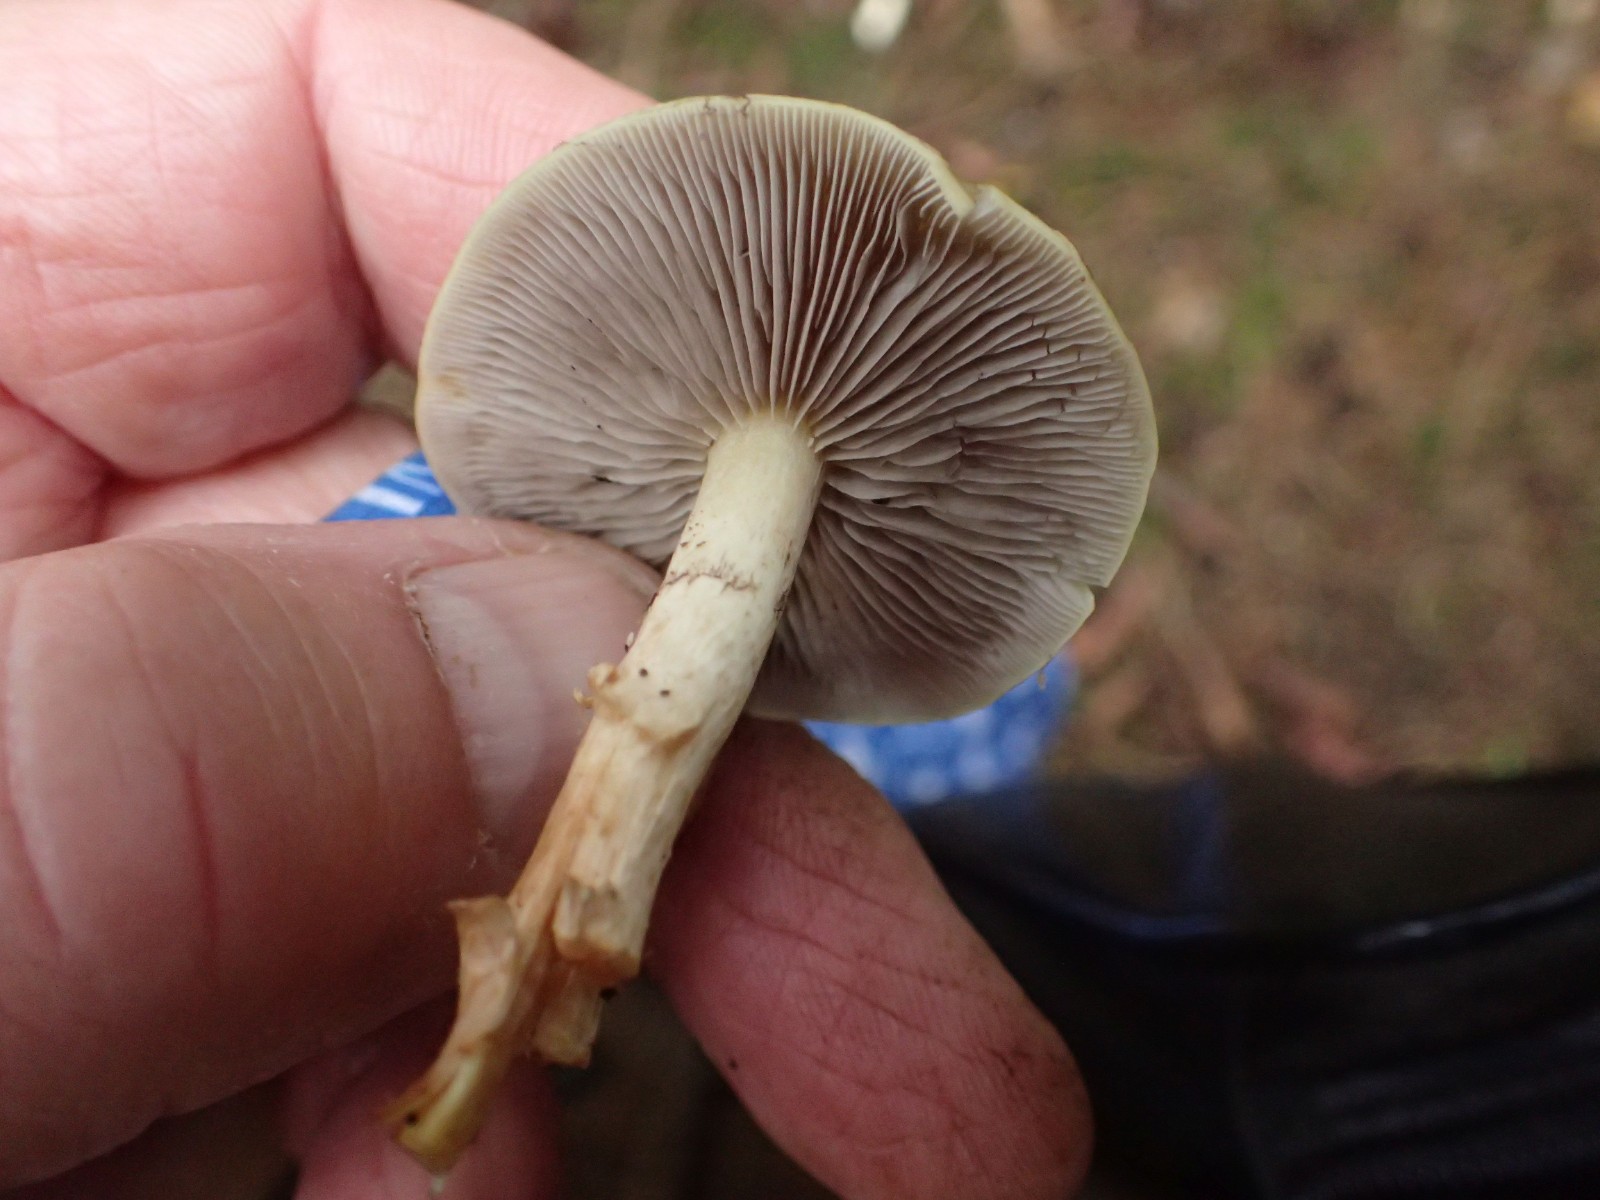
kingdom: Fungi
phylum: Basidiomycota
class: Agaricomycetes
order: Agaricales
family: Strophariaceae
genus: Hypholoma
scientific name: Hypholoma capnoides
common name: gran-svovlhat
